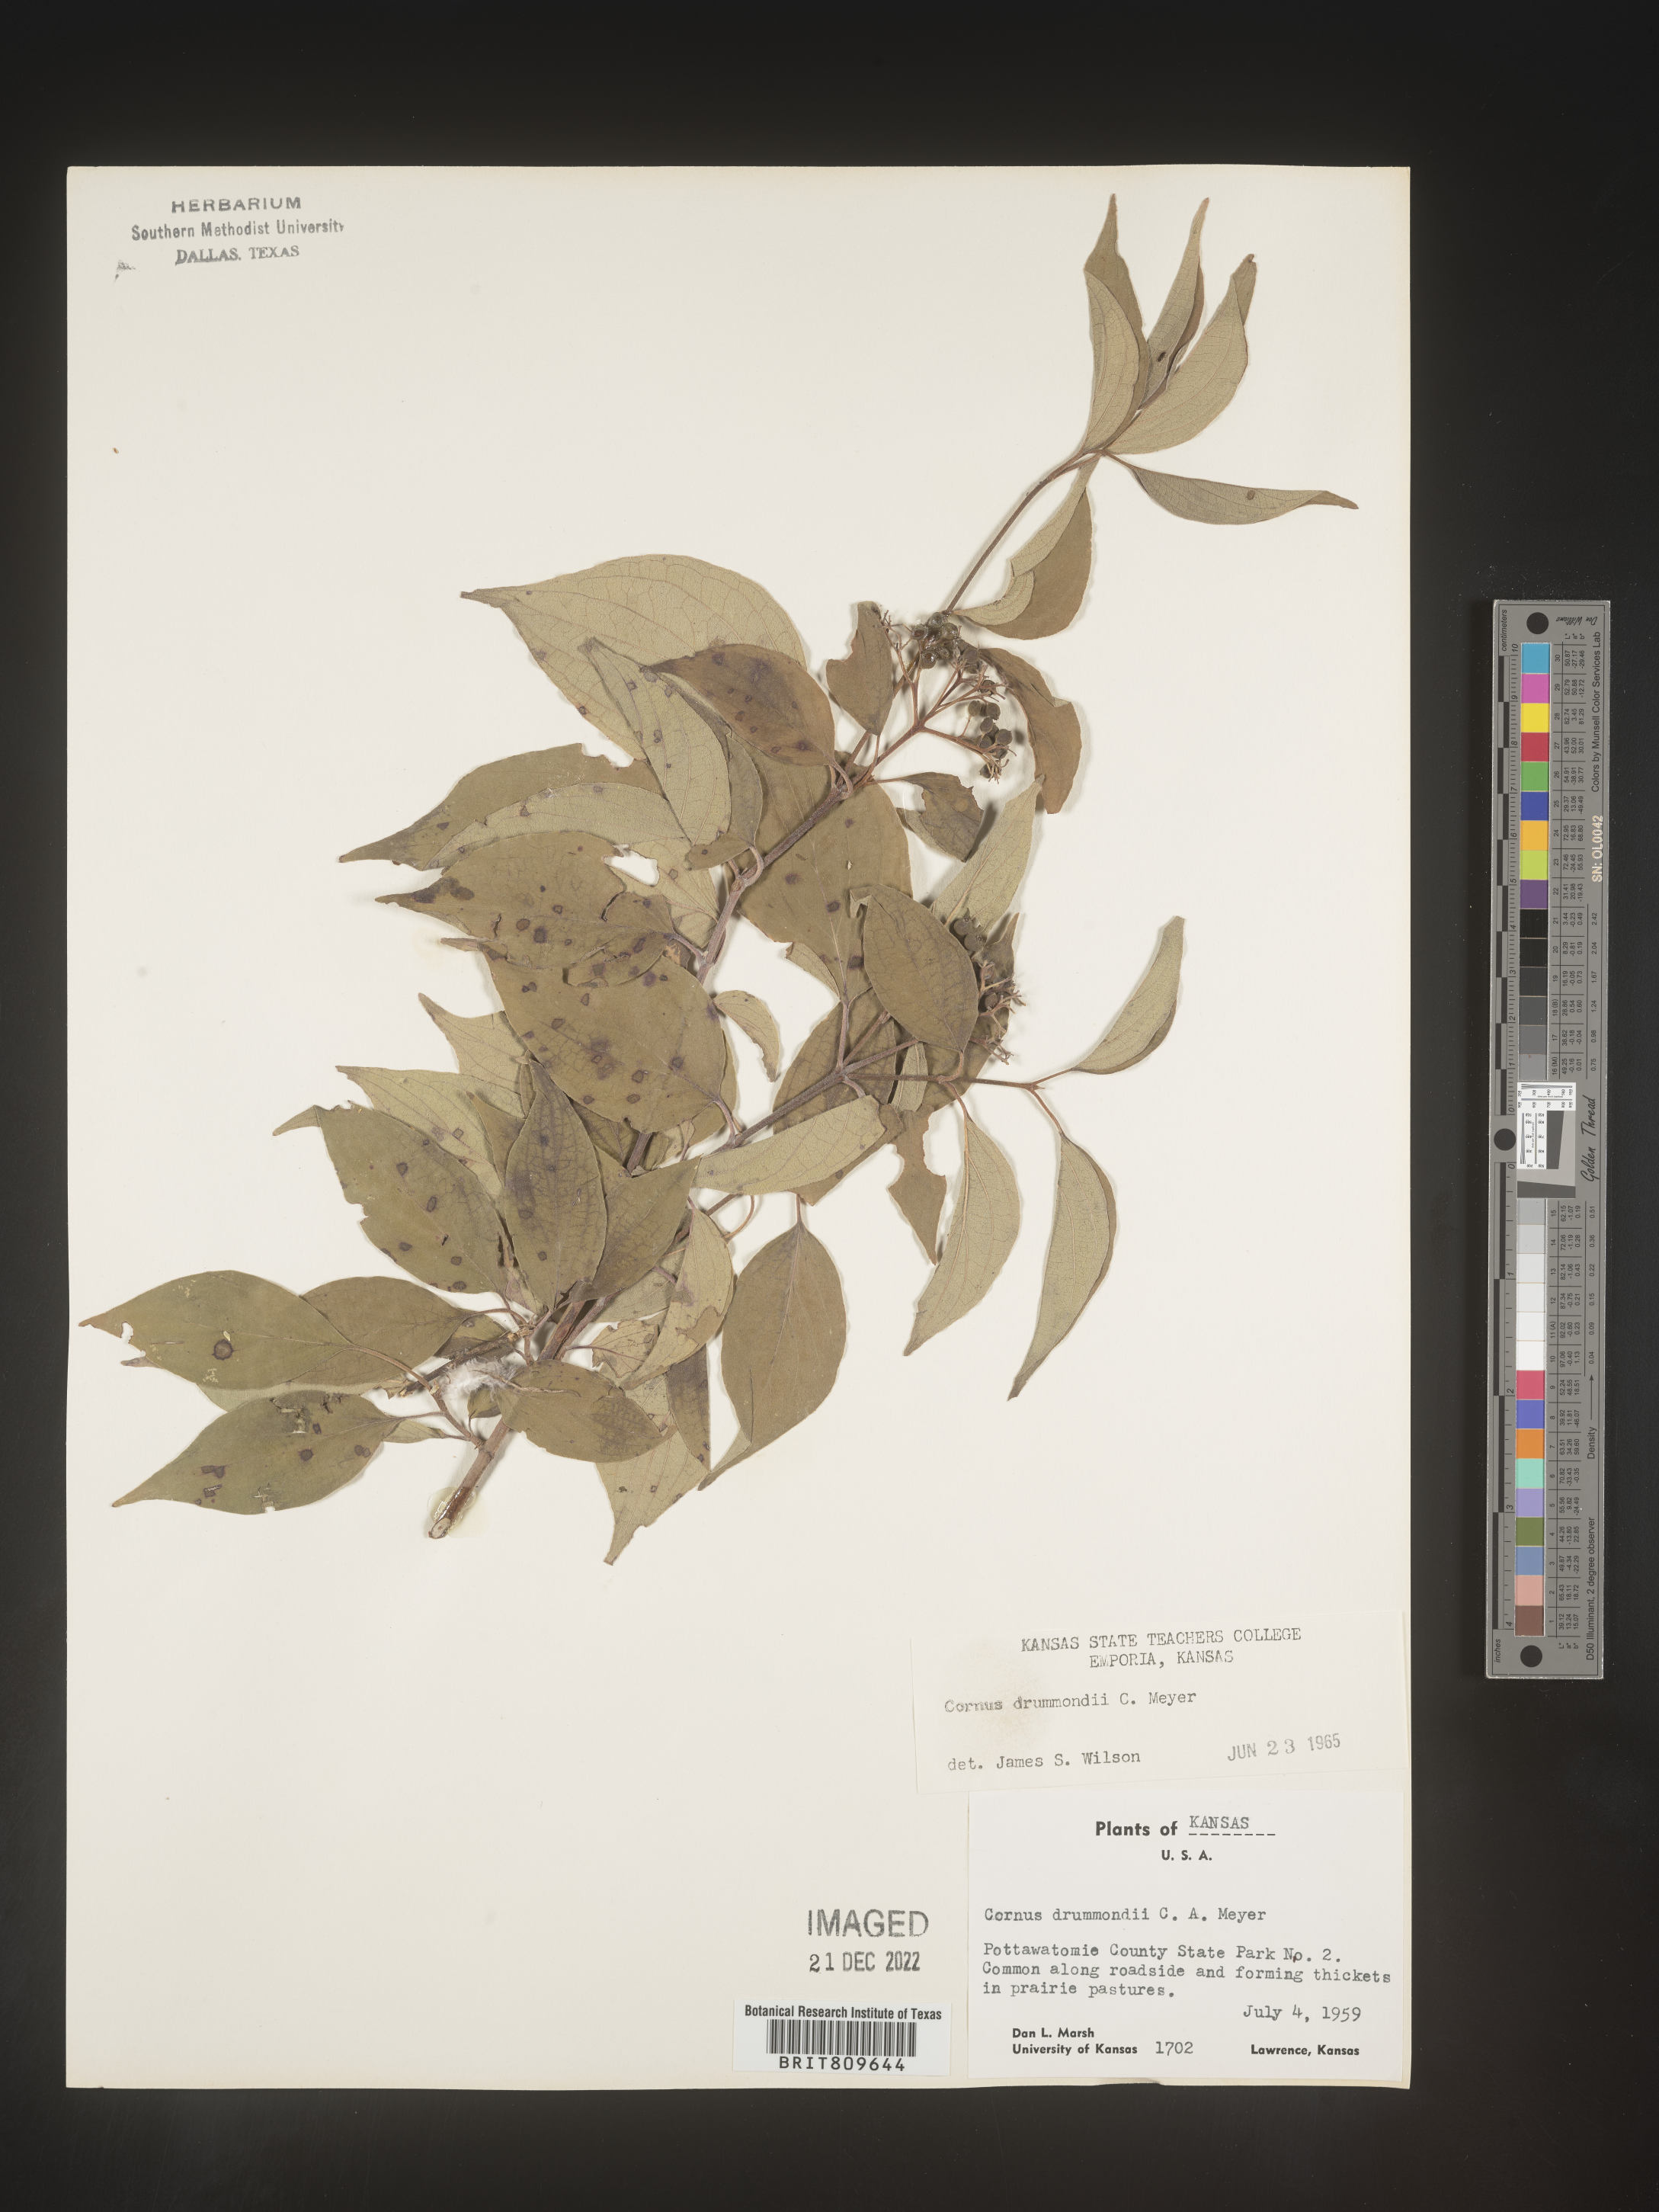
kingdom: Plantae
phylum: Tracheophyta
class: Magnoliopsida
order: Cornales
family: Cornaceae
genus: Cornus
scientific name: Cornus drummondii
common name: Rough-leaf dogwood
